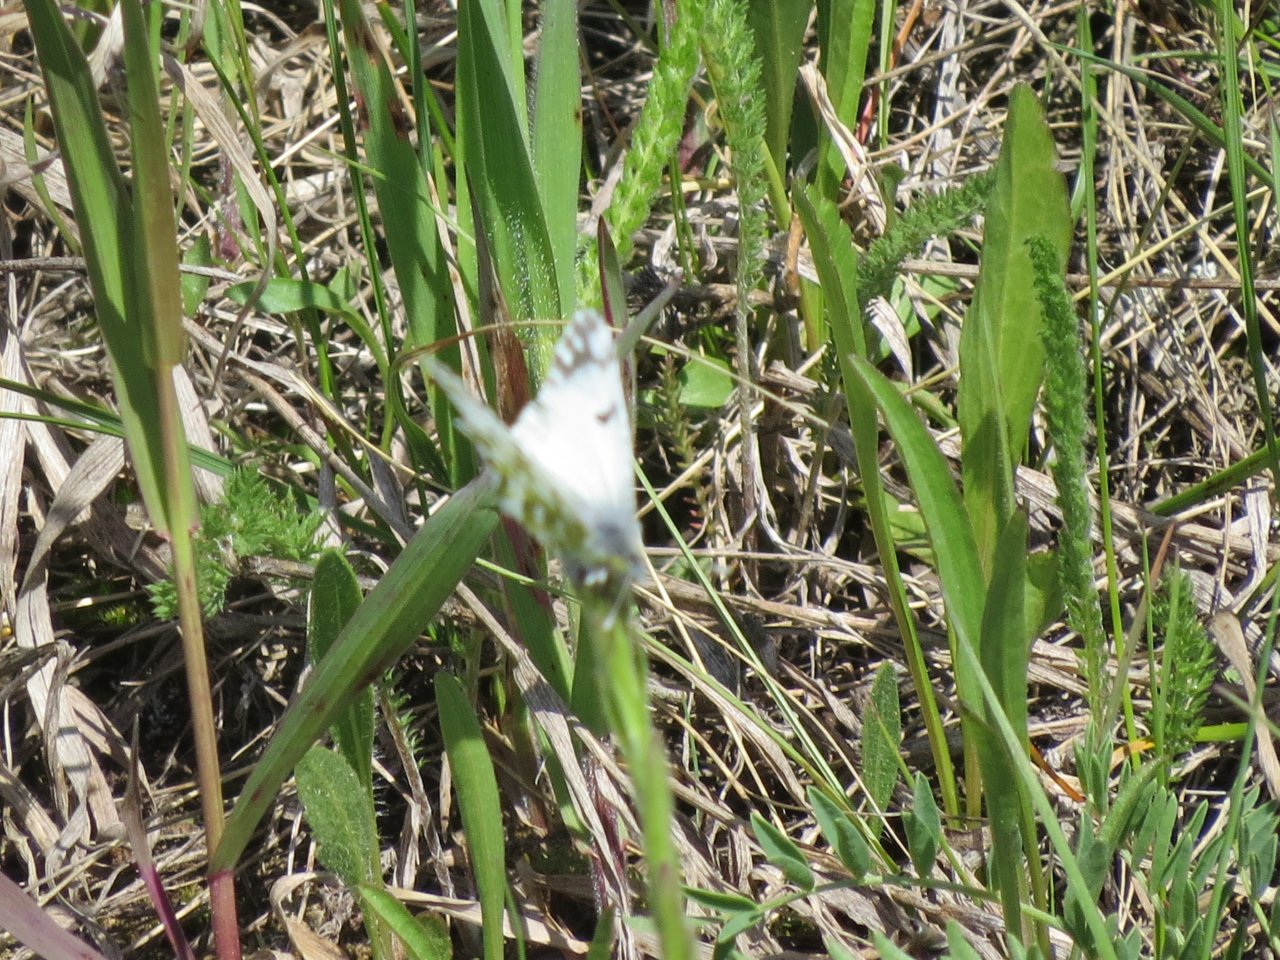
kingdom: Animalia
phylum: Arthropoda
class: Insecta
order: Lepidoptera
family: Pieridae
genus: Pontia
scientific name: Pontia occidentalis
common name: Western White
